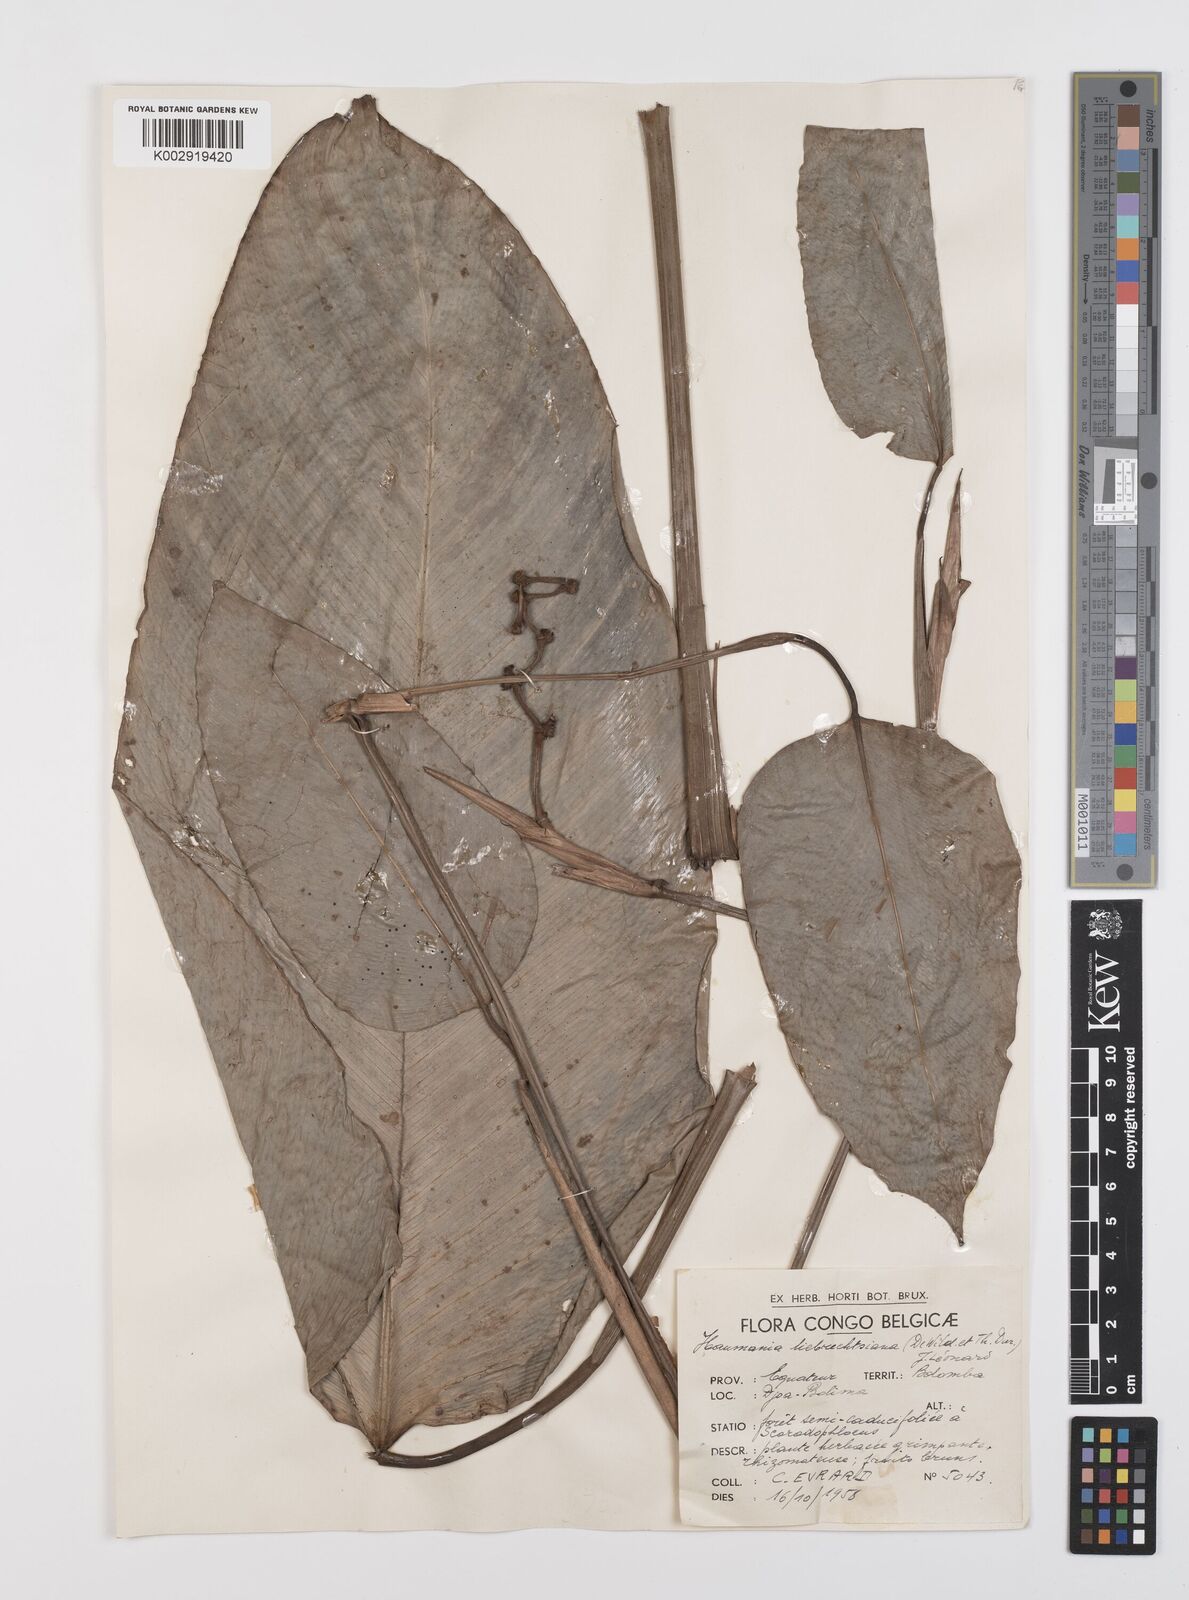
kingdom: Plantae
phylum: Tracheophyta
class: Liliopsida
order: Zingiberales
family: Marantaceae
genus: Haumania
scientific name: Haumania liebrechtsiana
